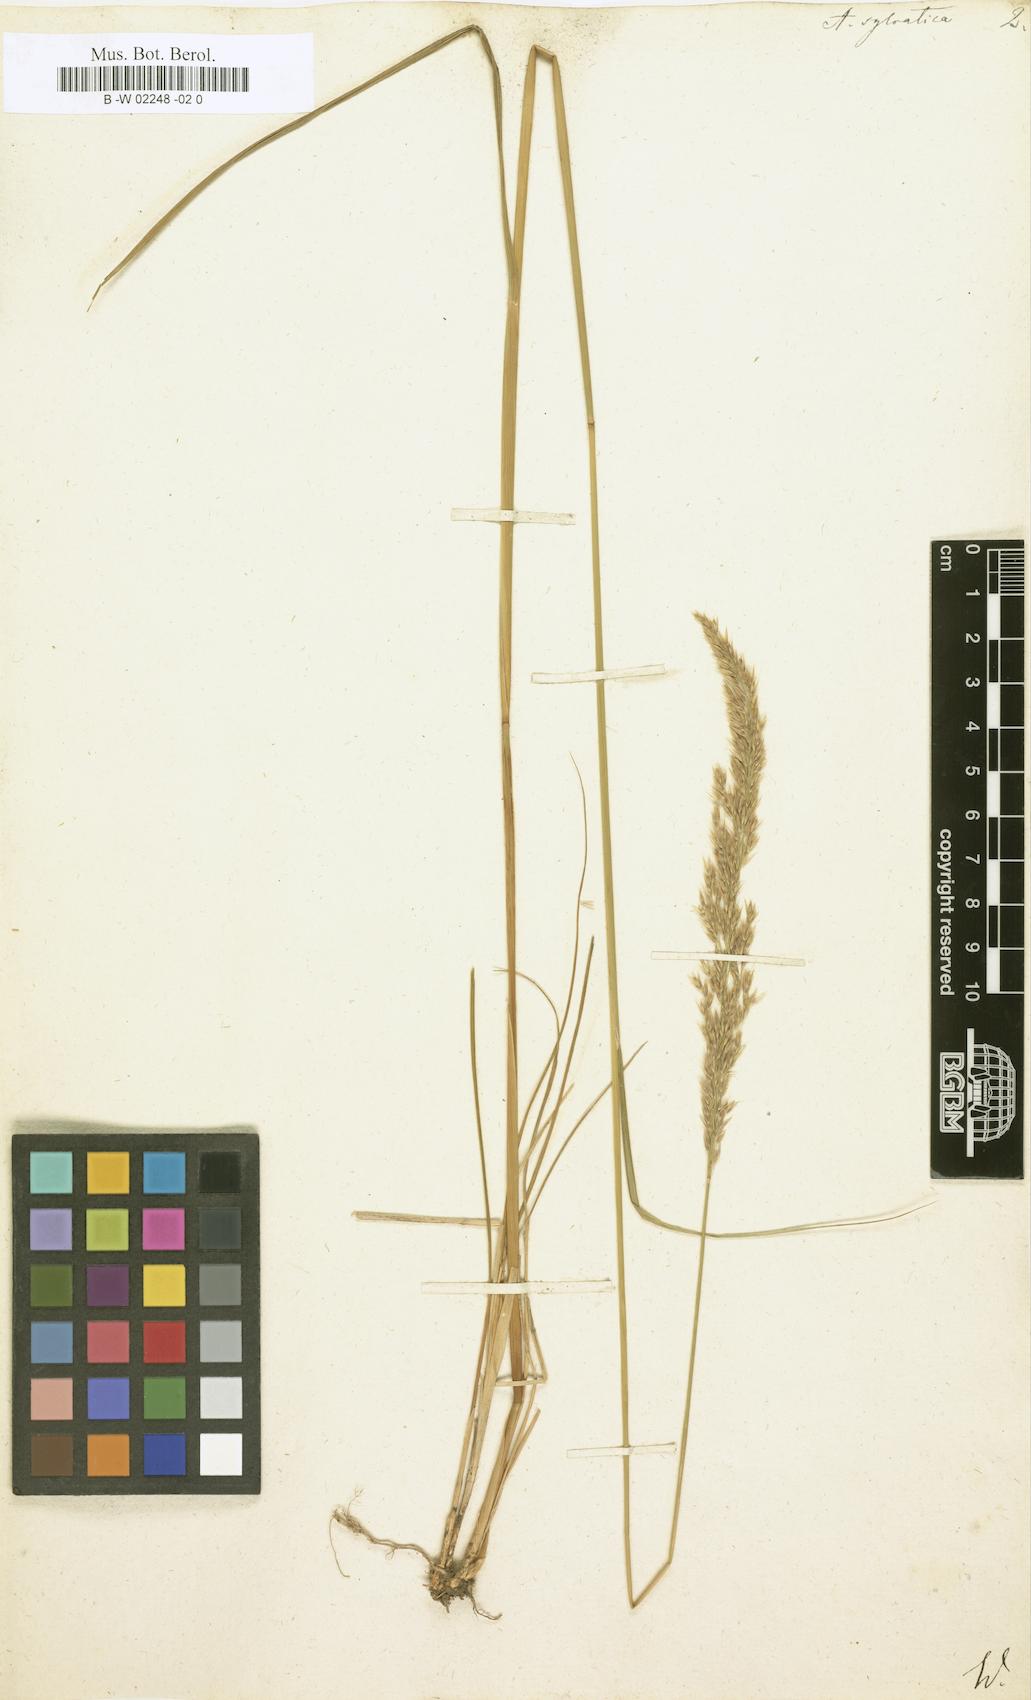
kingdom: Plantae
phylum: Tracheophyta
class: Liliopsida
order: Poales
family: Poaceae
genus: Calamagrostis
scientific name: Calamagrostis arundinacea
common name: Metskastik
